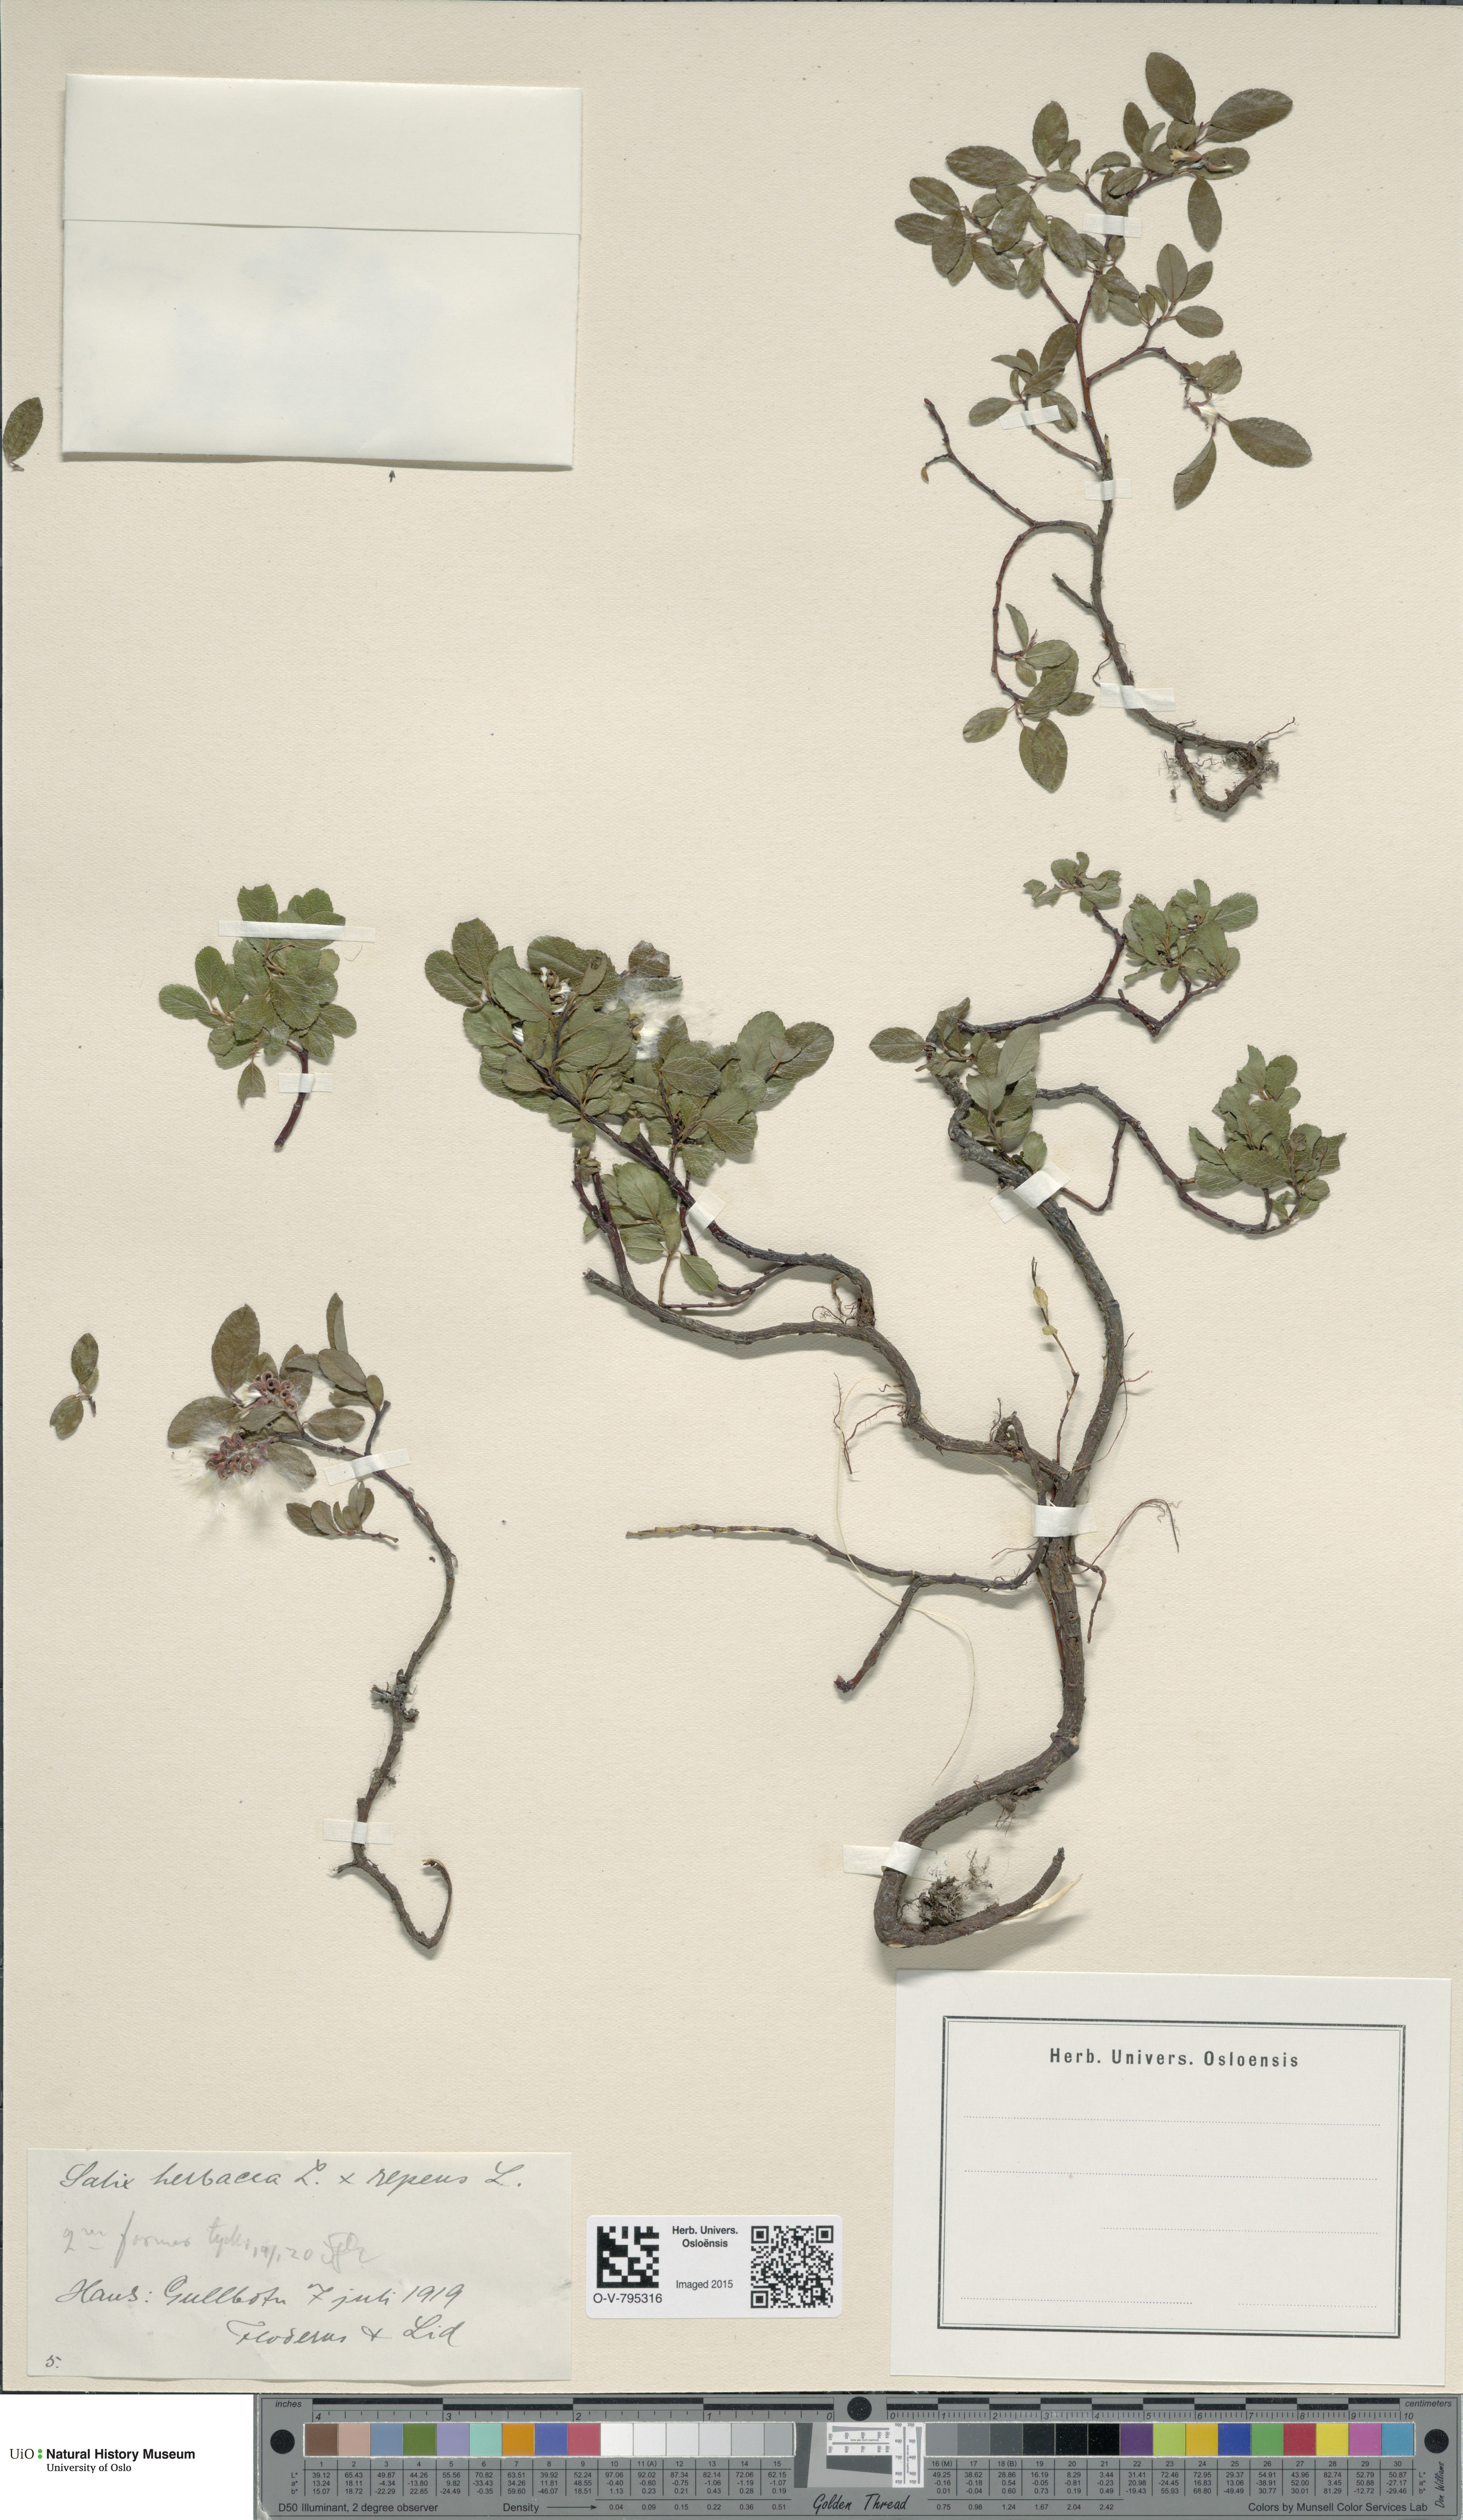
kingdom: Plantae
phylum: Tracheophyta
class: Magnoliopsida
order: Malpighiales
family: Salicaceae
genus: Salix
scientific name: Salix
